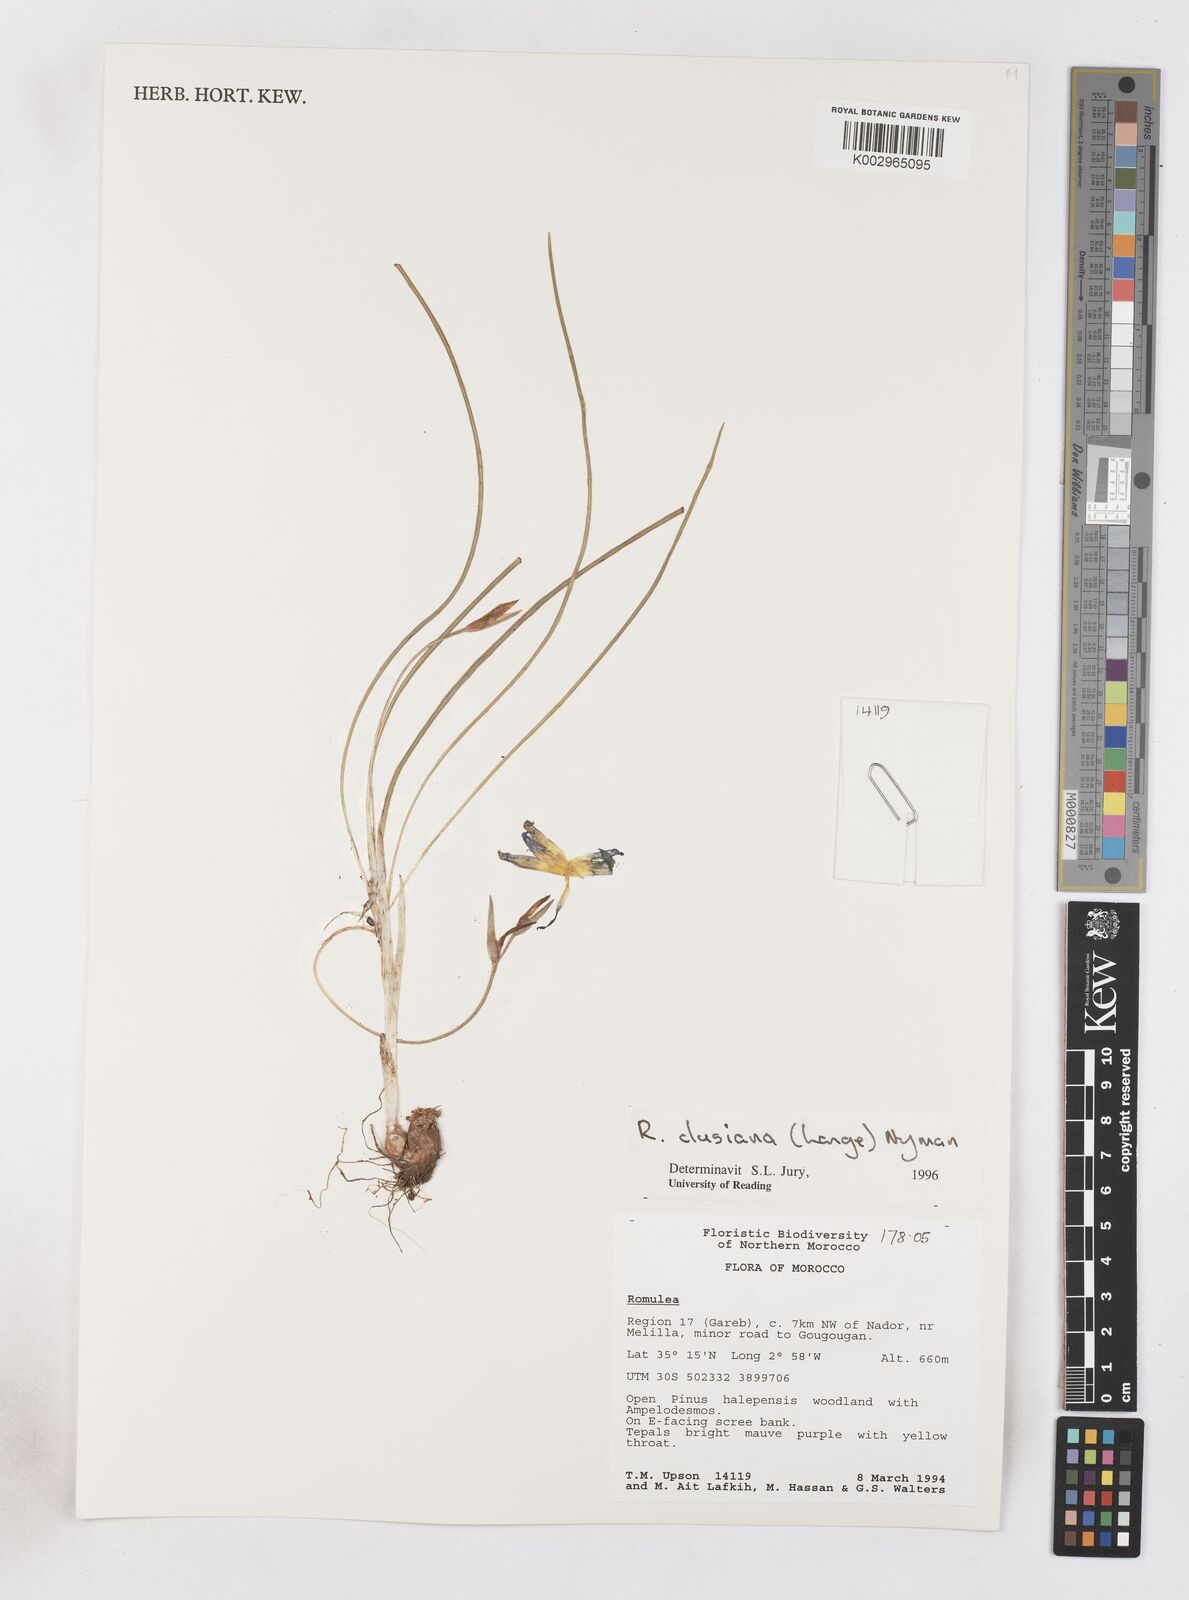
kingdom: Plantae
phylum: Tracheophyta
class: Liliopsida
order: Asparagales
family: Iridaceae
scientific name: Iridaceae
